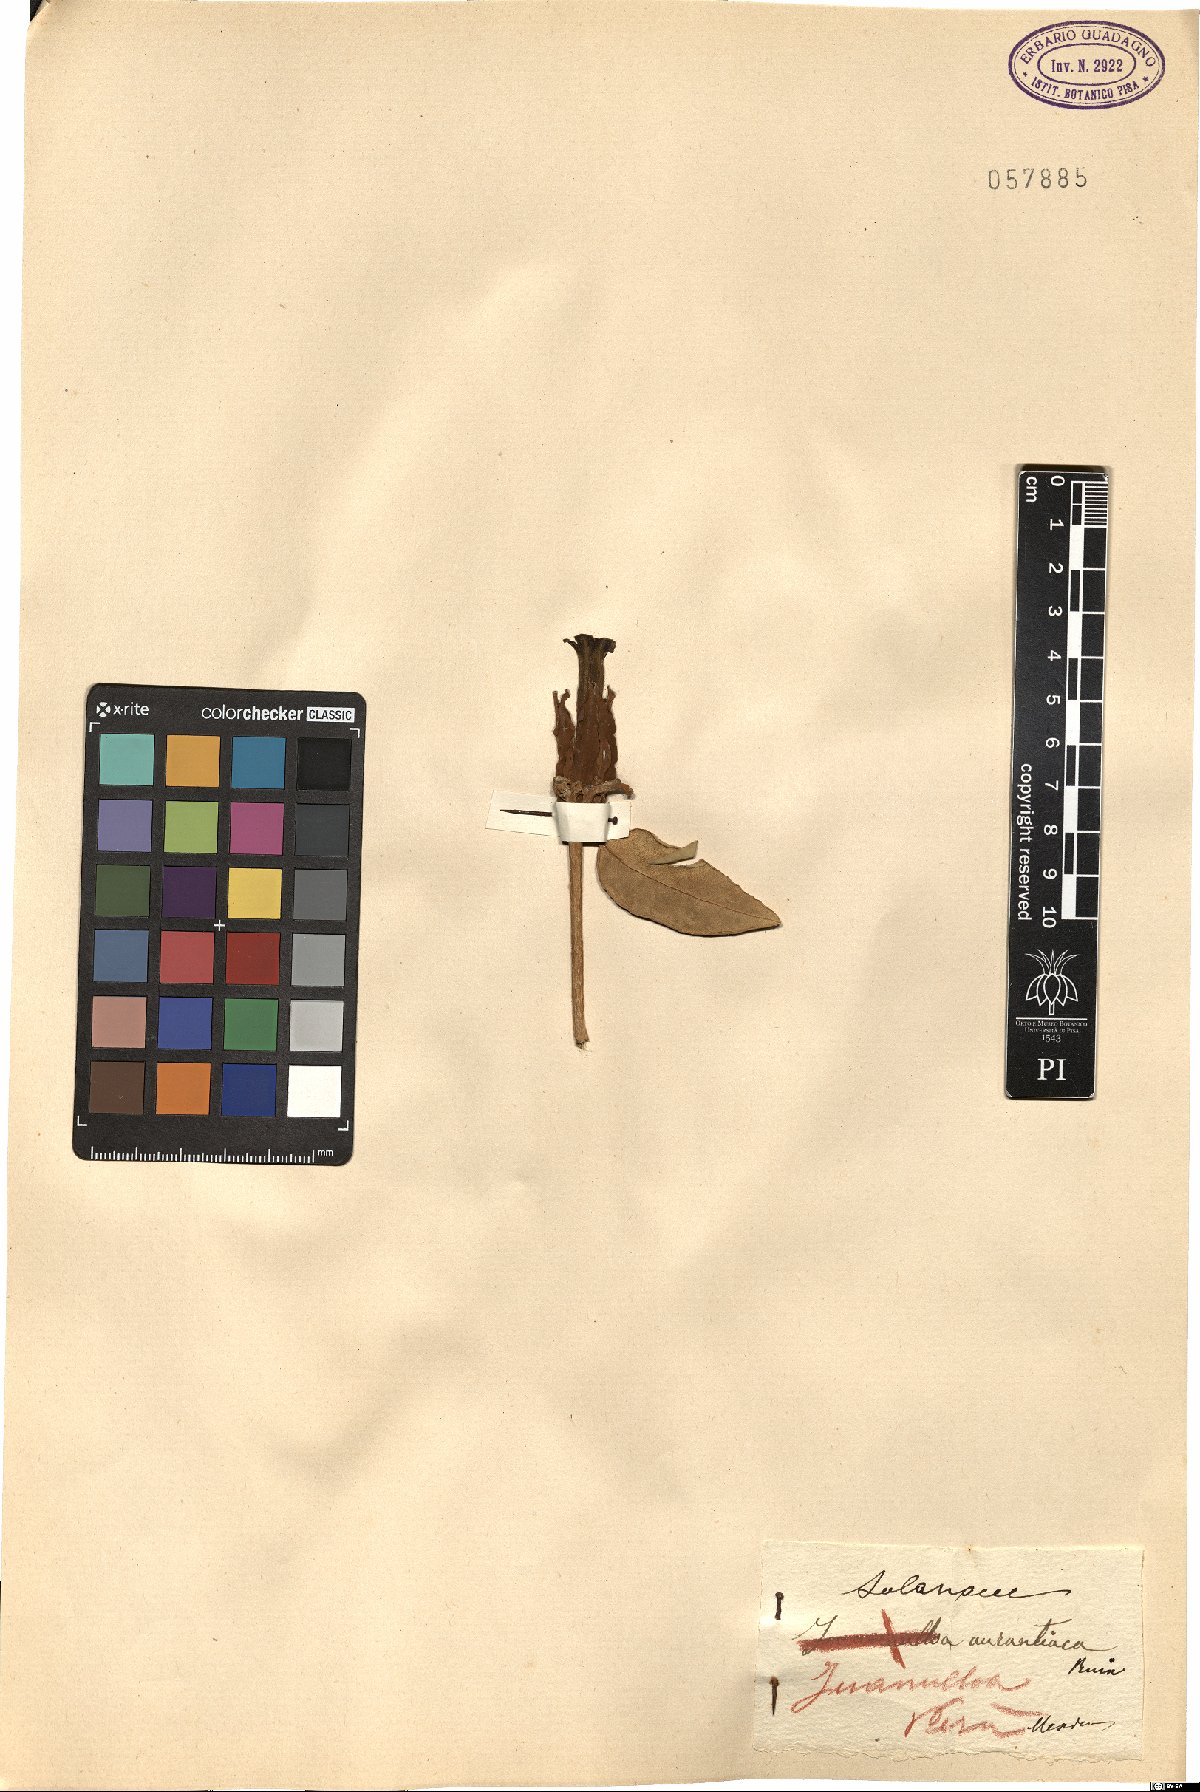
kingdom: Plantae
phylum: Tracheophyta
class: Magnoliopsida
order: Solanales
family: Solanaceae
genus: Juanulloa
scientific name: Juanulloa mexicana
